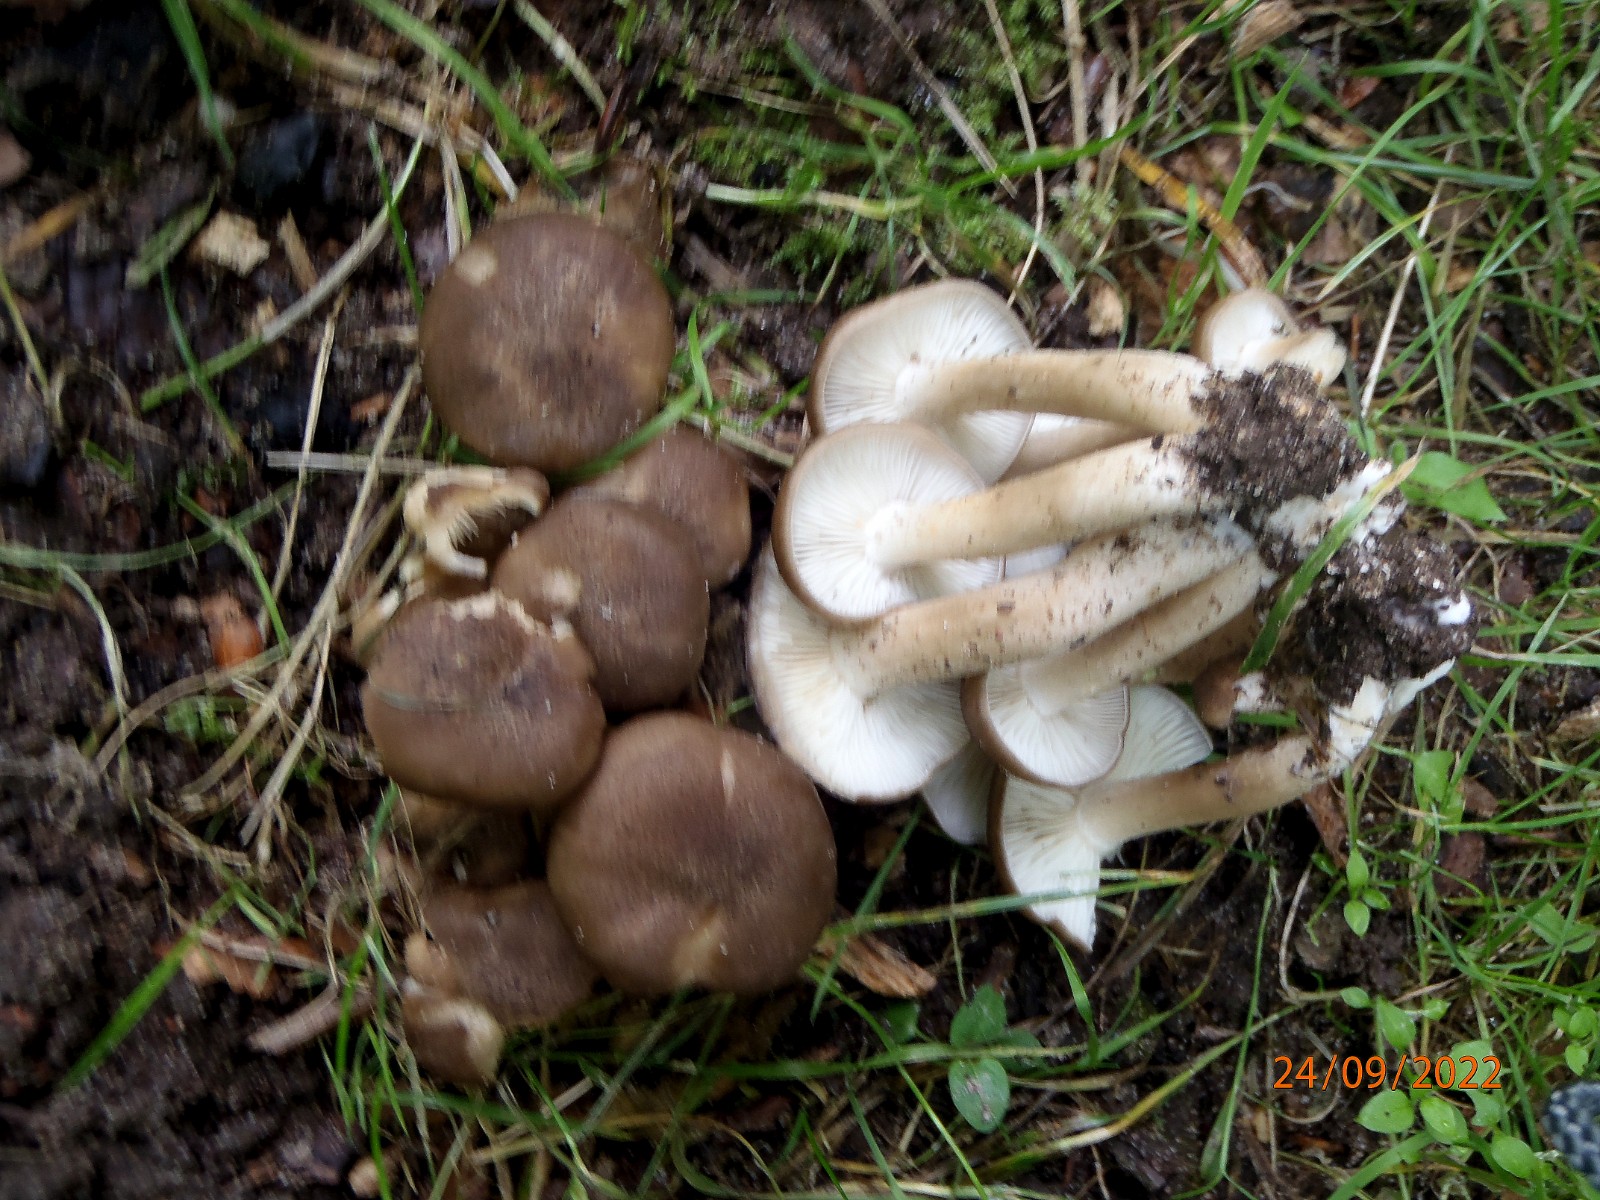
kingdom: Fungi
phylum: Basidiomycota
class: Agaricomycetes
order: Agaricales
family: Lyophyllaceae
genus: Lyophyllum
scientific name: Lyophyllum decastes
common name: Clustered domecap
